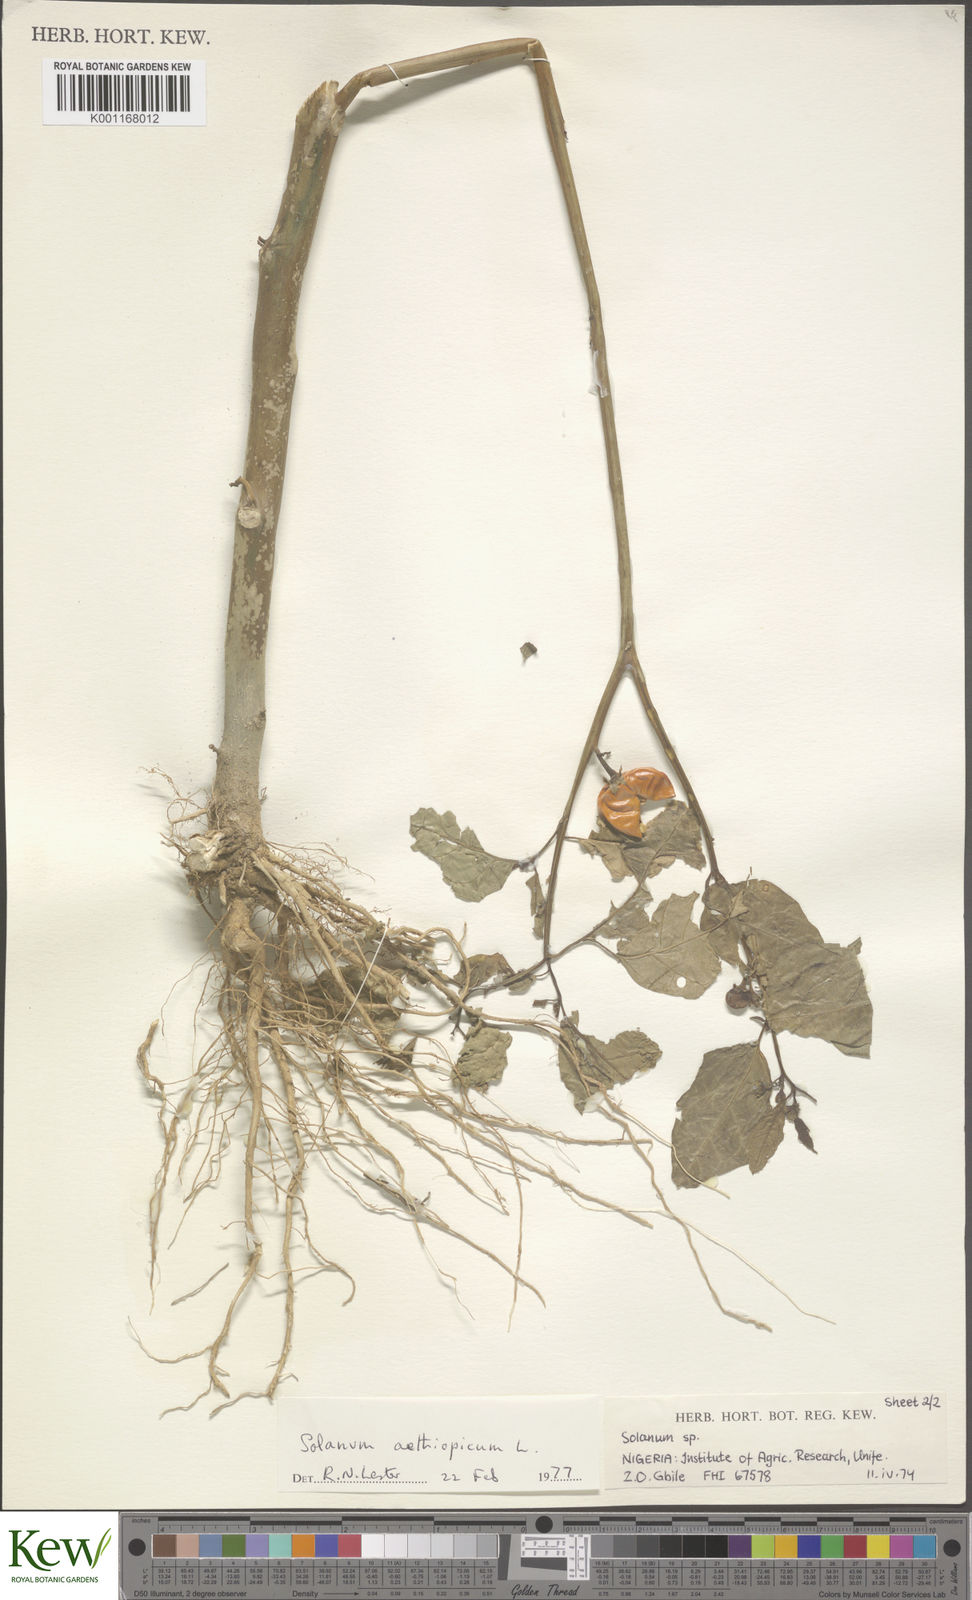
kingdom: Plantae
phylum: Tracheophyta
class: Magnoliopsida
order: Solanales
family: Solanaceae
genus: Solanum
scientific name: Solanum aethiopicum
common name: Gilo
